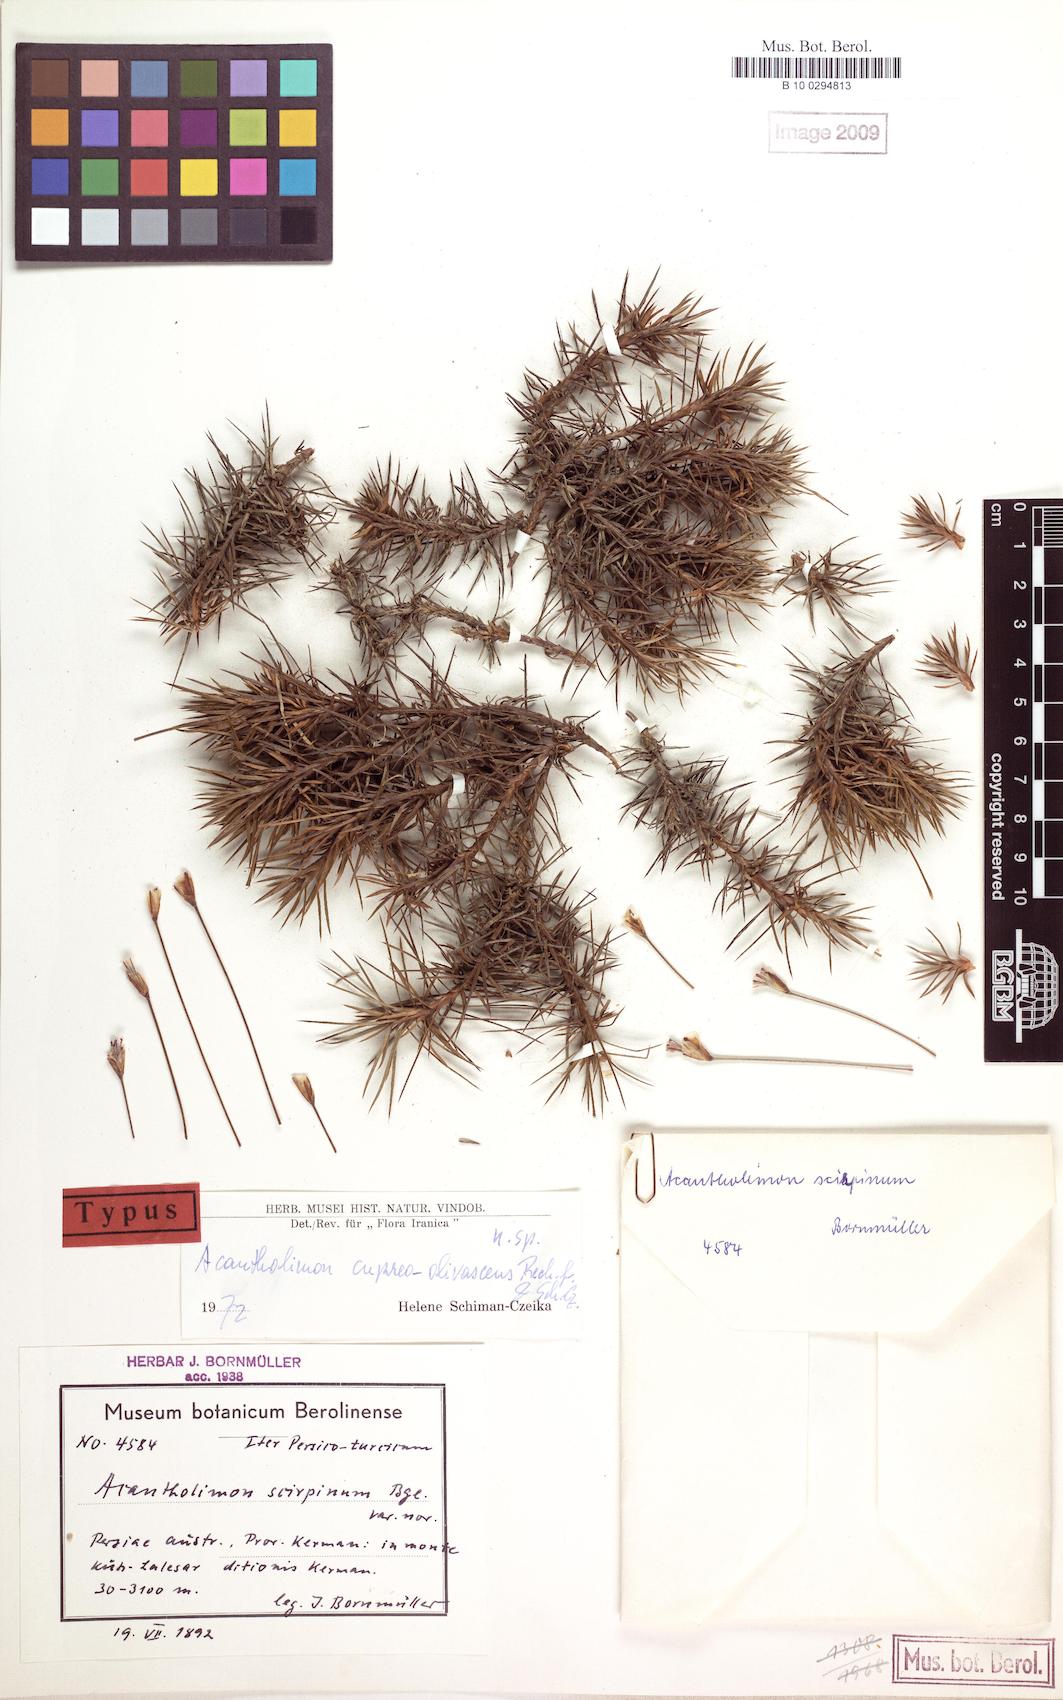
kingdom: Plantae
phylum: Tracheophyta
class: Magnoliopsida
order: Caryophyllales
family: Plumbaginaceae
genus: Acantholimon
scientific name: Acantholimon cupreo-olivascens
